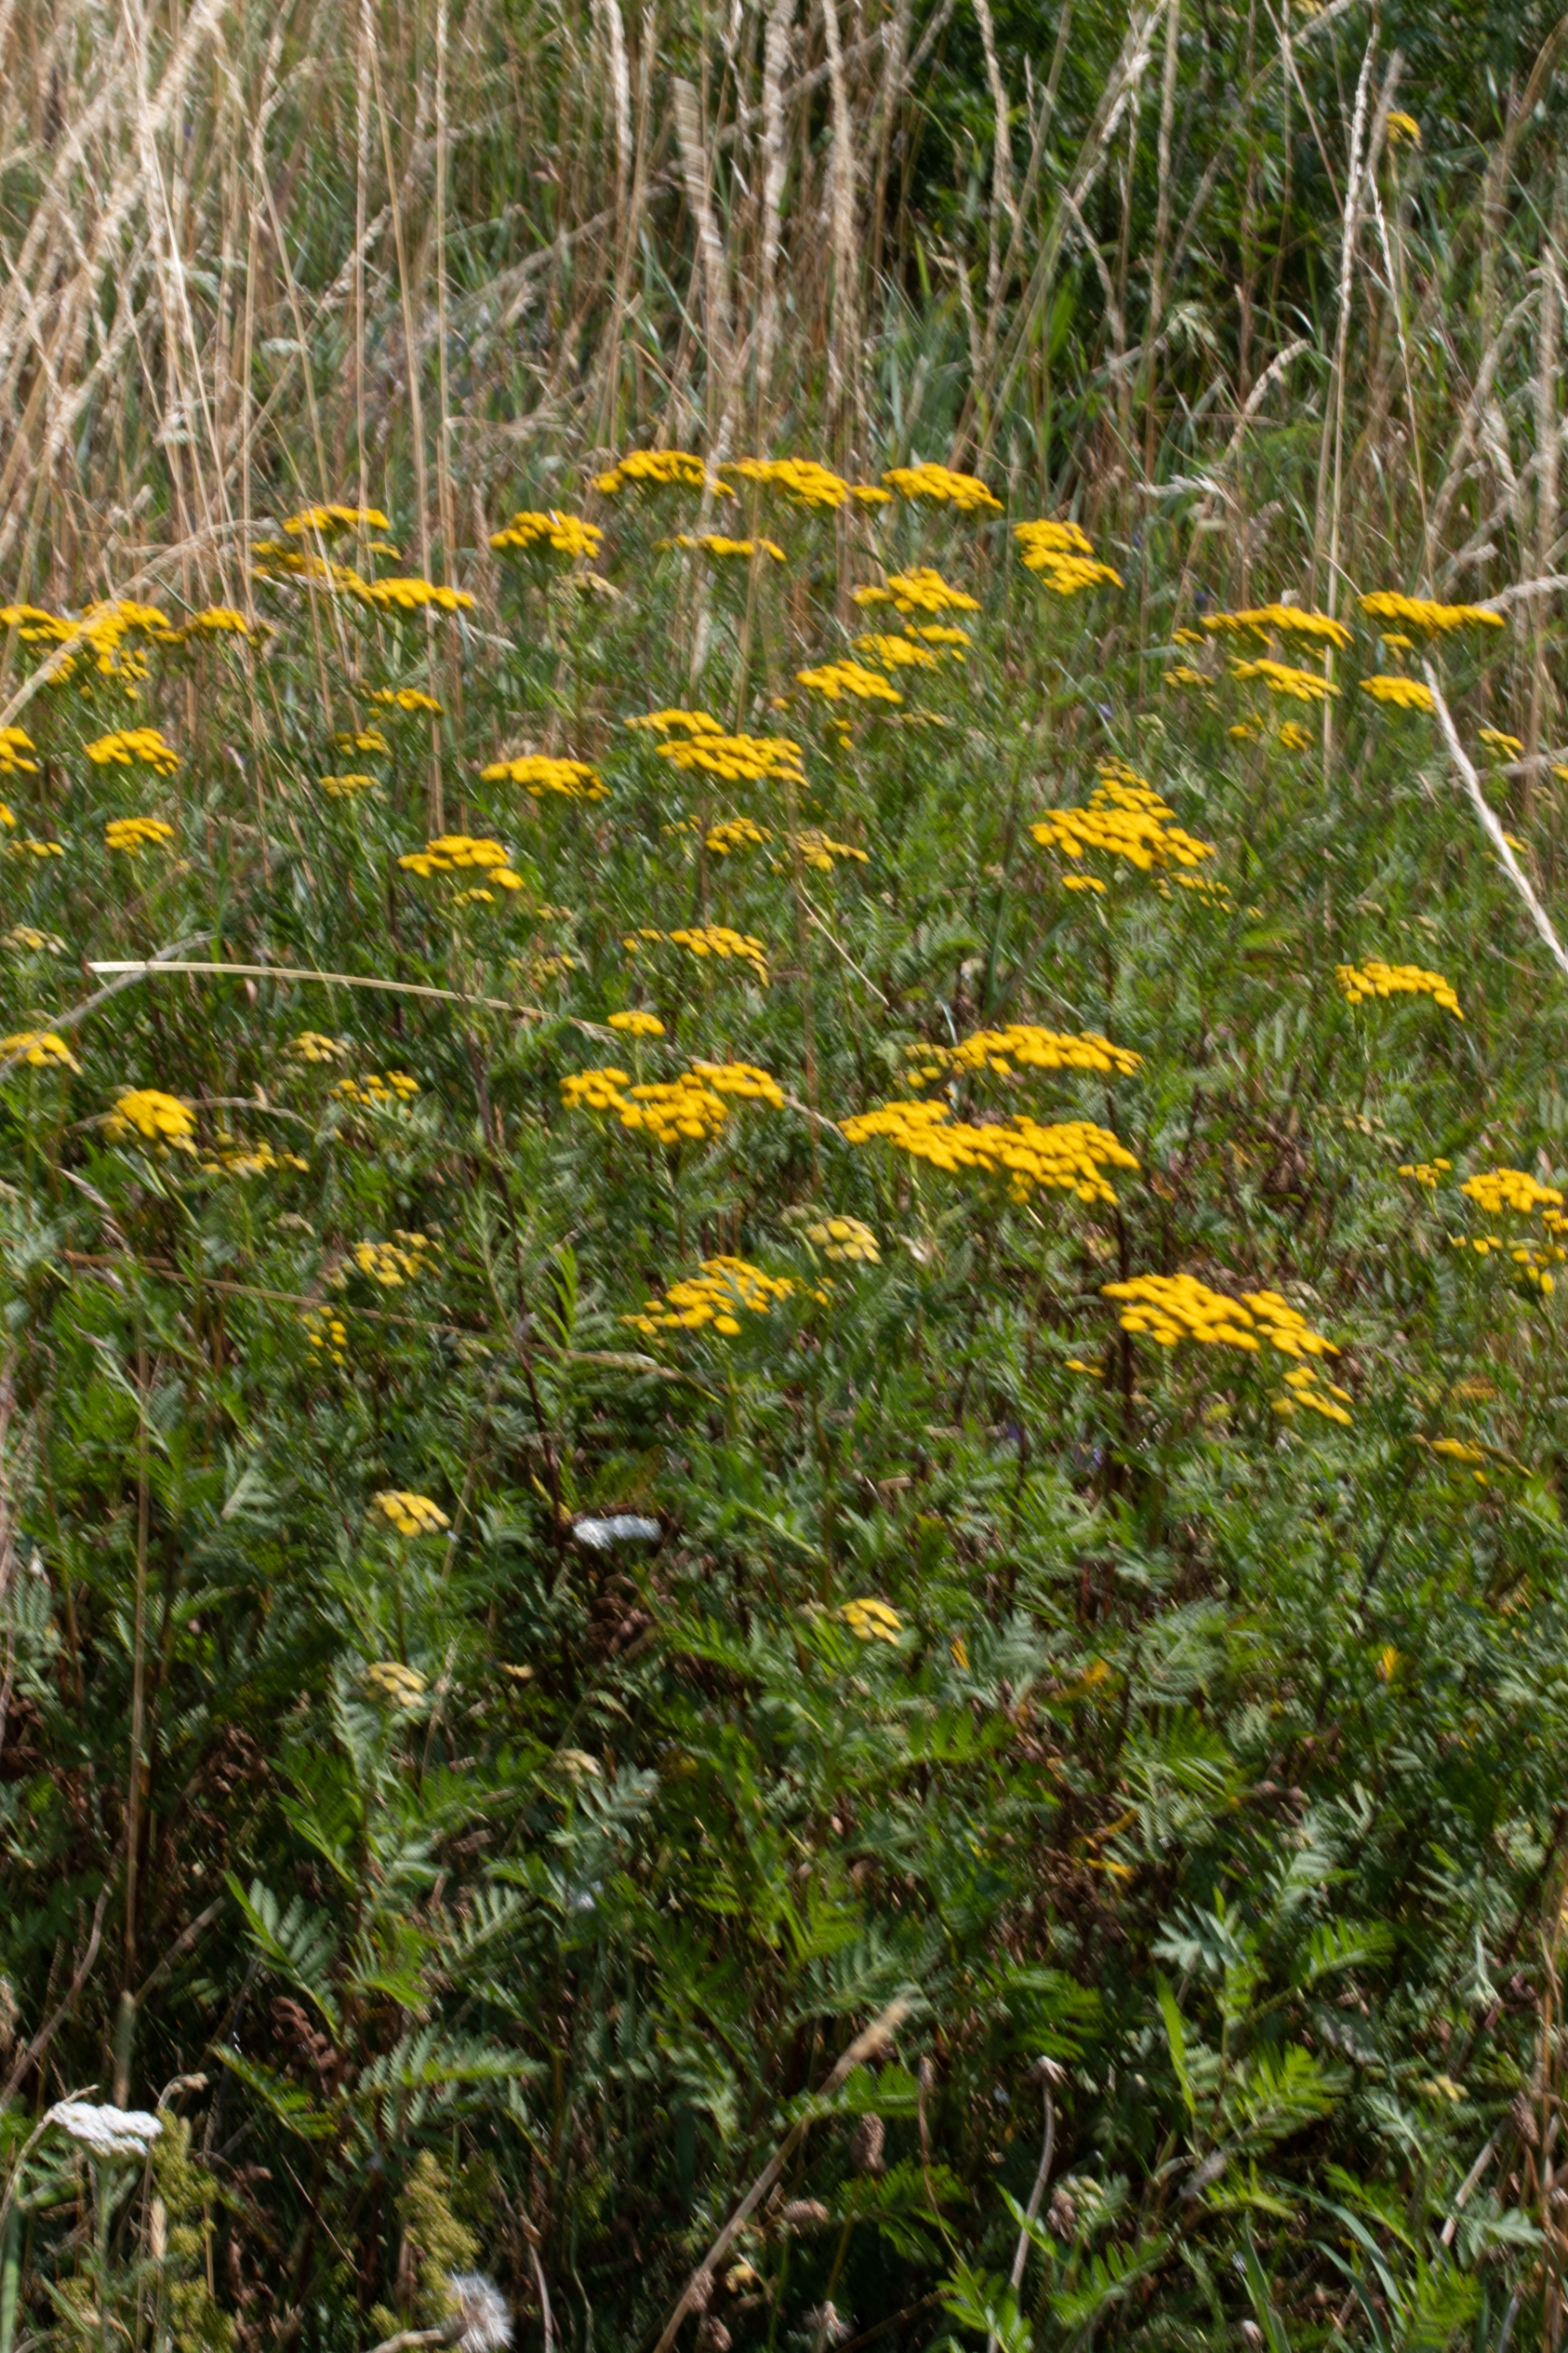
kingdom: Plantae
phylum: Tracheophyta
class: Magnoliopsida
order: Asterales
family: Asteraceae
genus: Tanacetum
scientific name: Tanacetum vulgare
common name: Rejnfan
